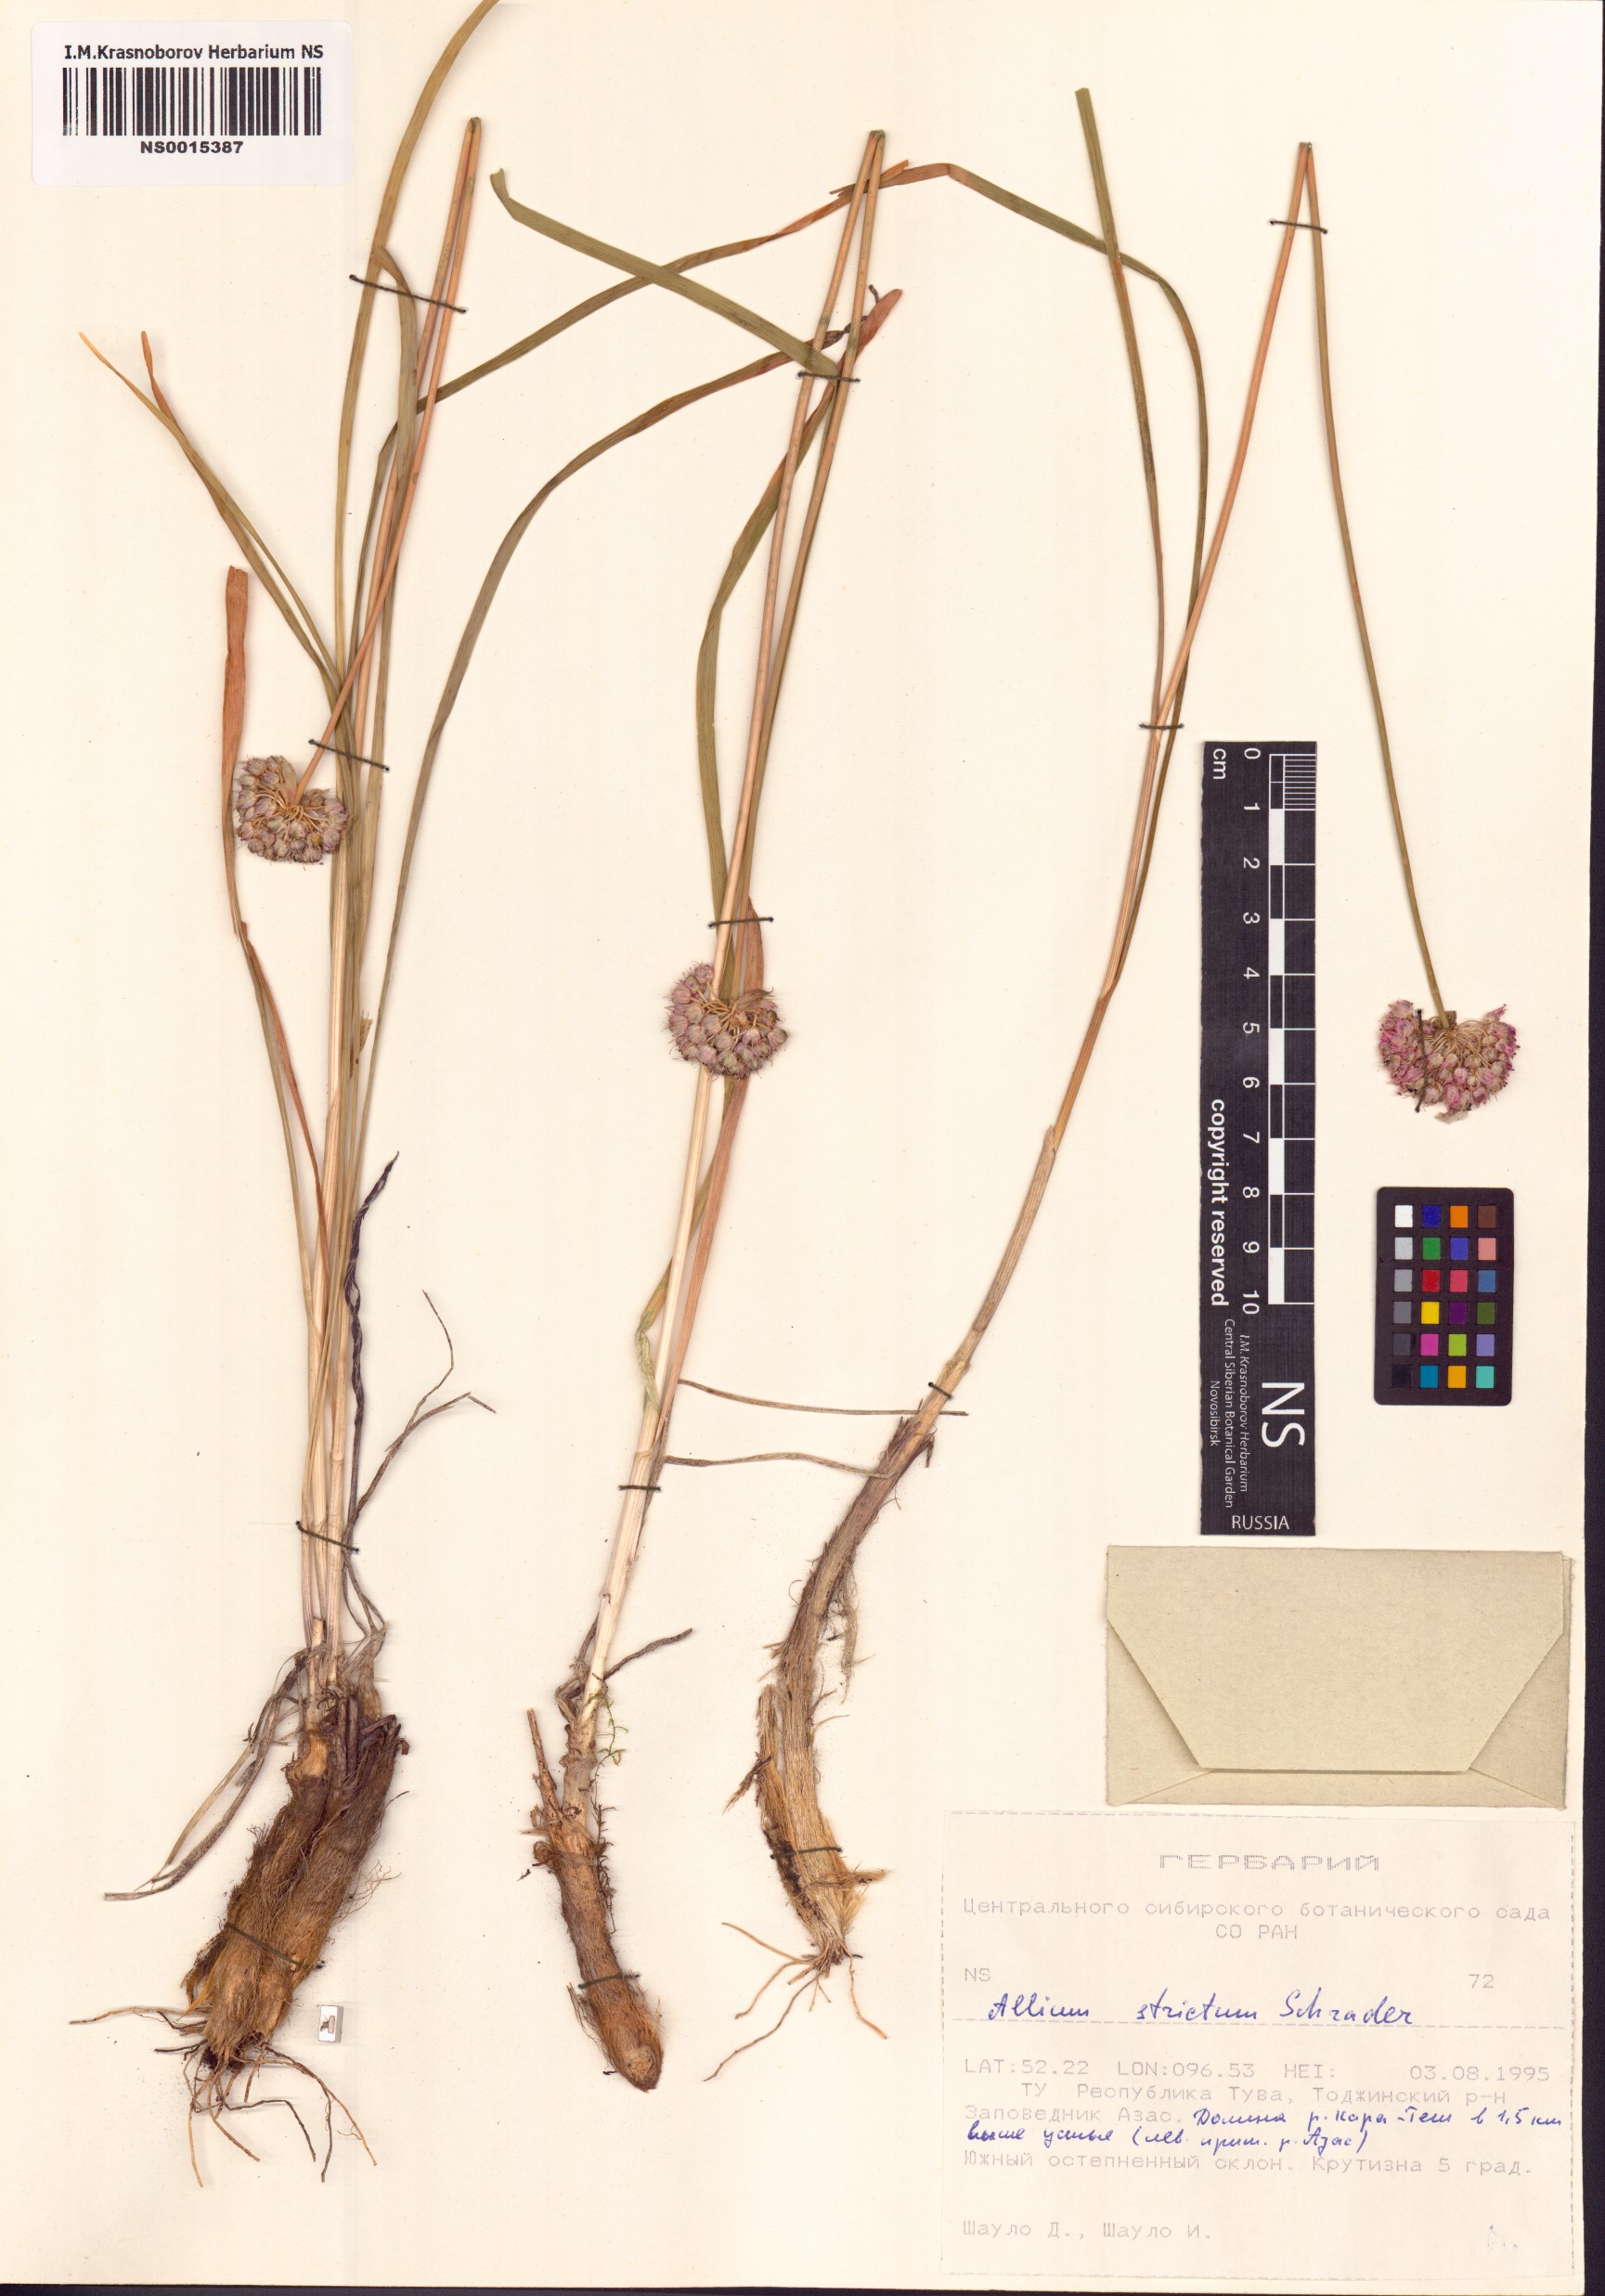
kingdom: Plantae
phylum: Tracheophyta
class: Liliopsida
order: Asparagales
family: Amaryllidaceae
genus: Allium
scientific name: Allium strictum
